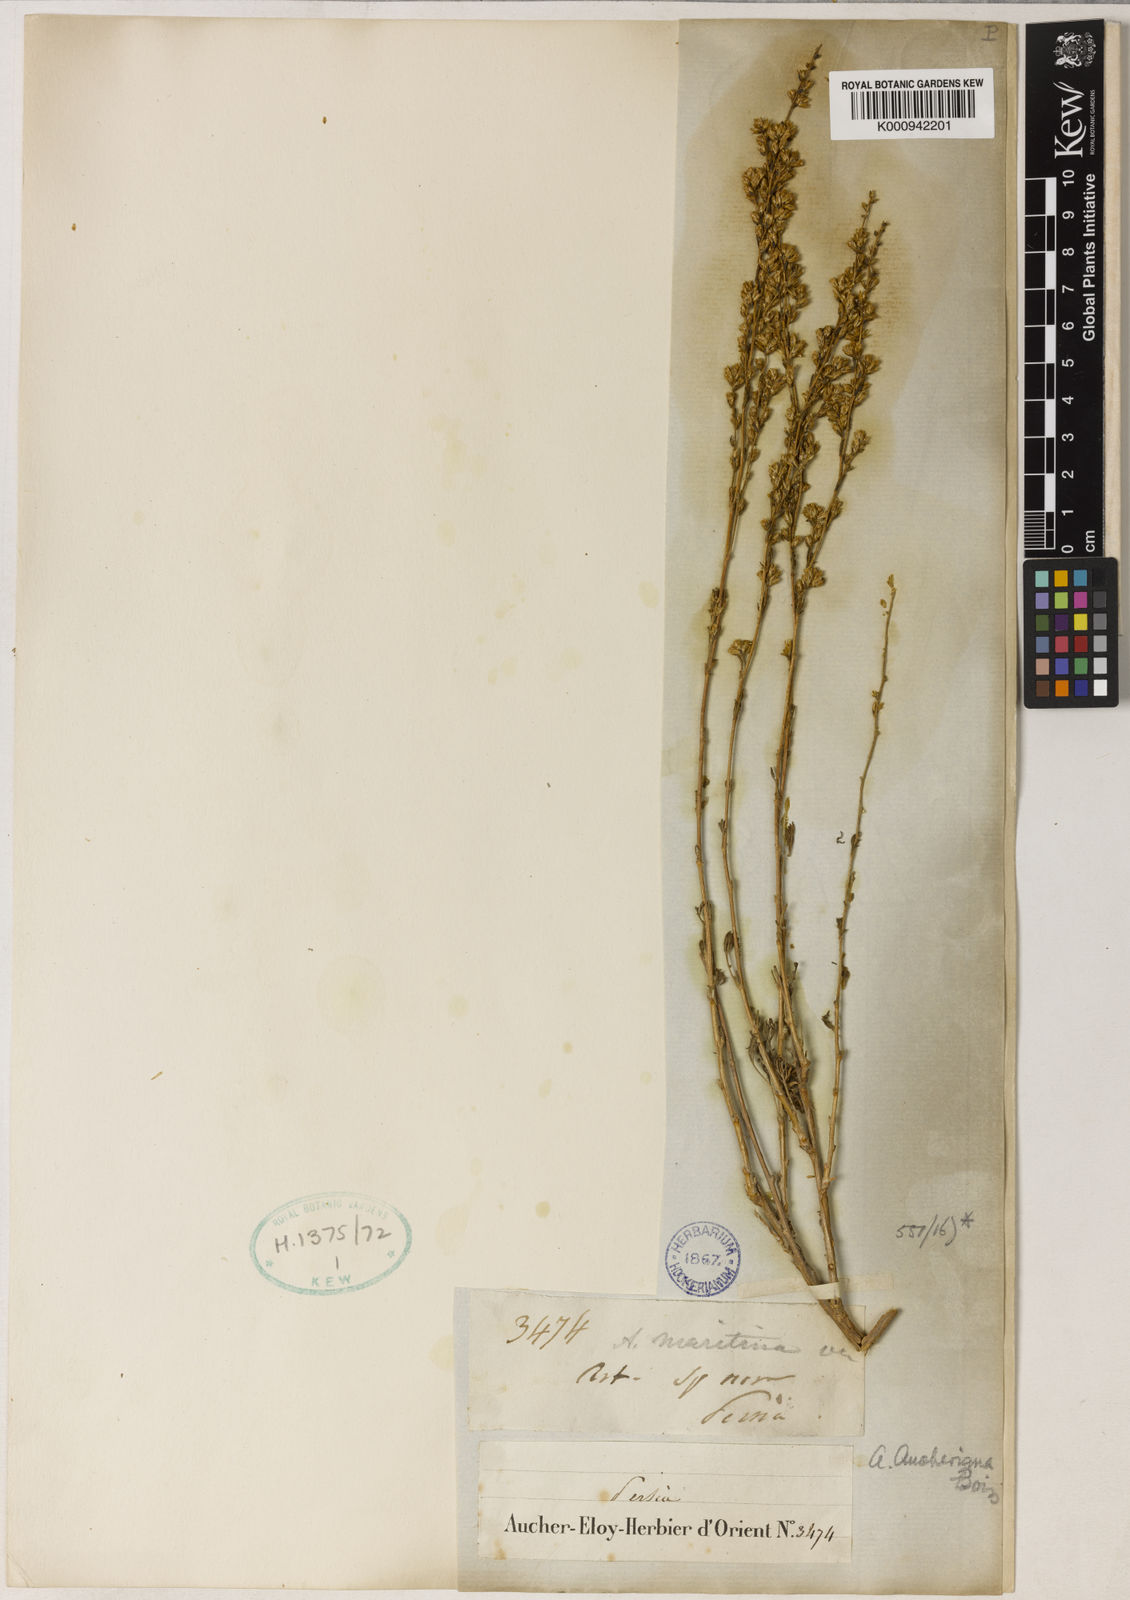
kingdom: Plantae
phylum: Tracheophyta
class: Magnoliopsida
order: Asterales
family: Asteraceae
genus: Artemisia
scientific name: Artemisia aucheri
